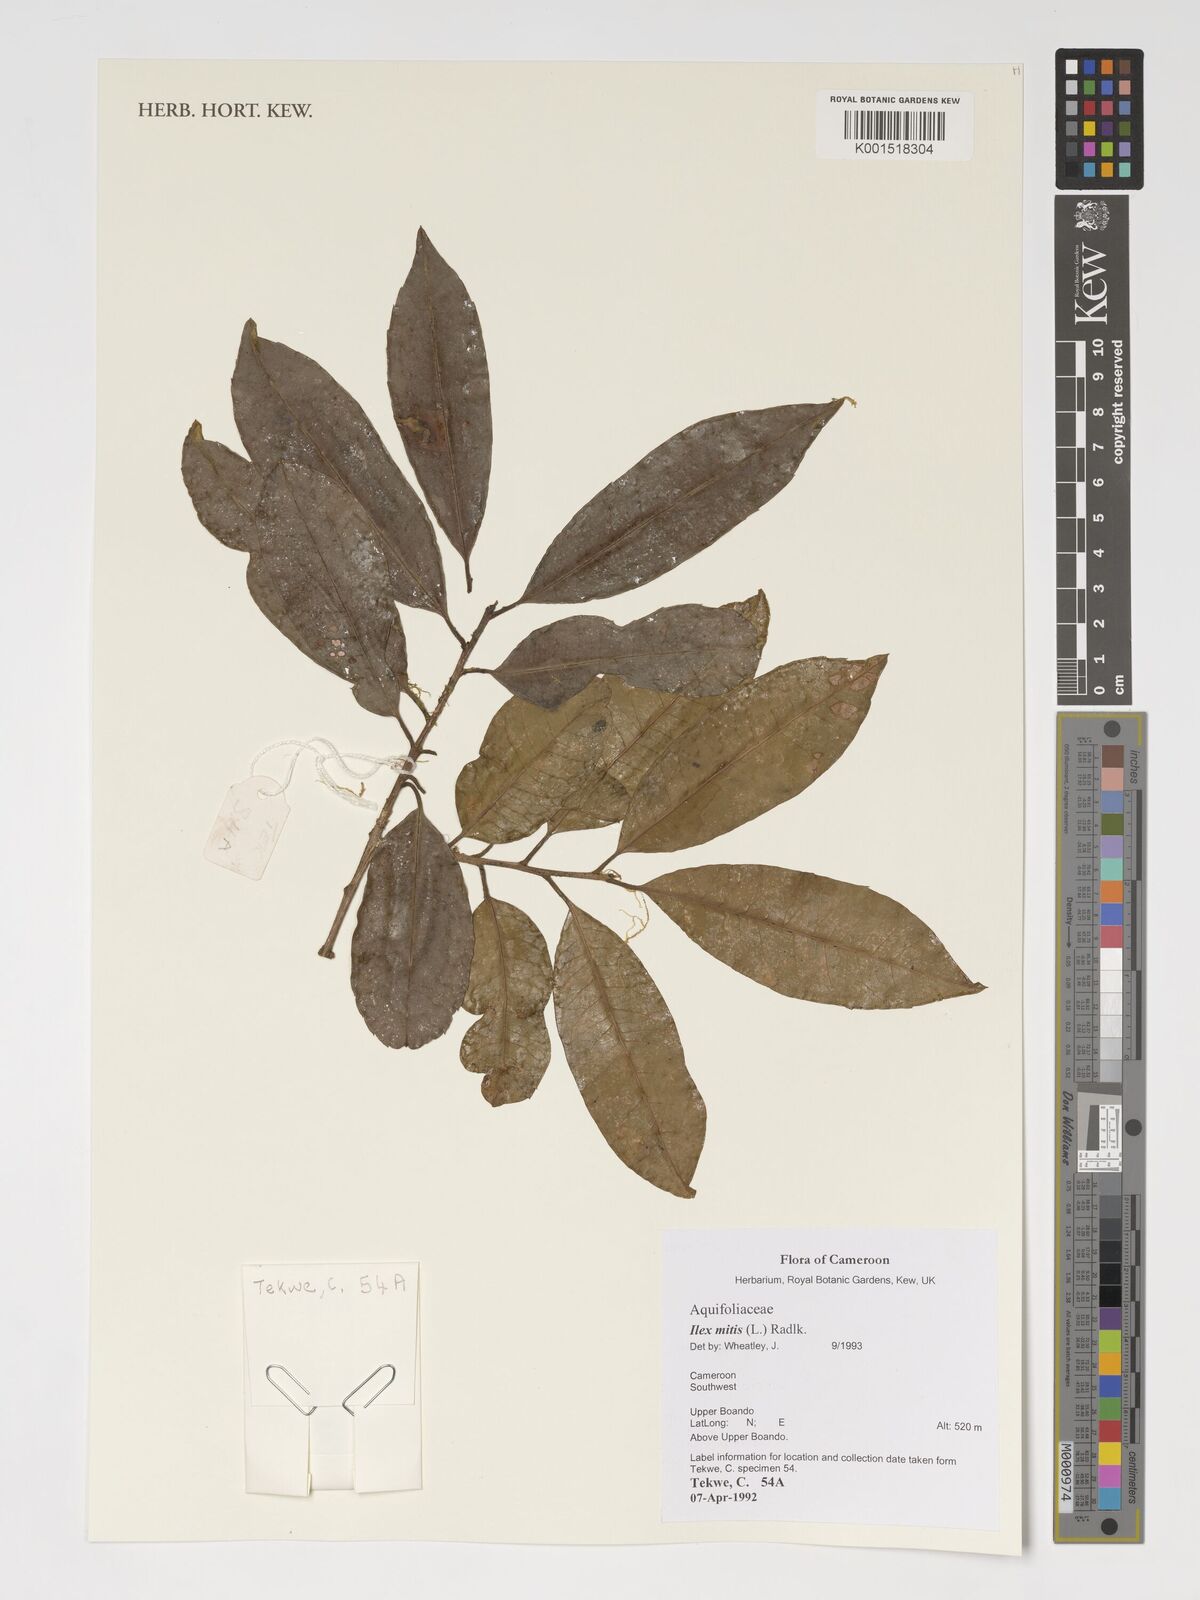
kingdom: Plantae
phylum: Tracheophyta
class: Magnoliopsida
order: Aquifoliales
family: Aquifoliaceae
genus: Ilex
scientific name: Ilex mitis
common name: African holly
